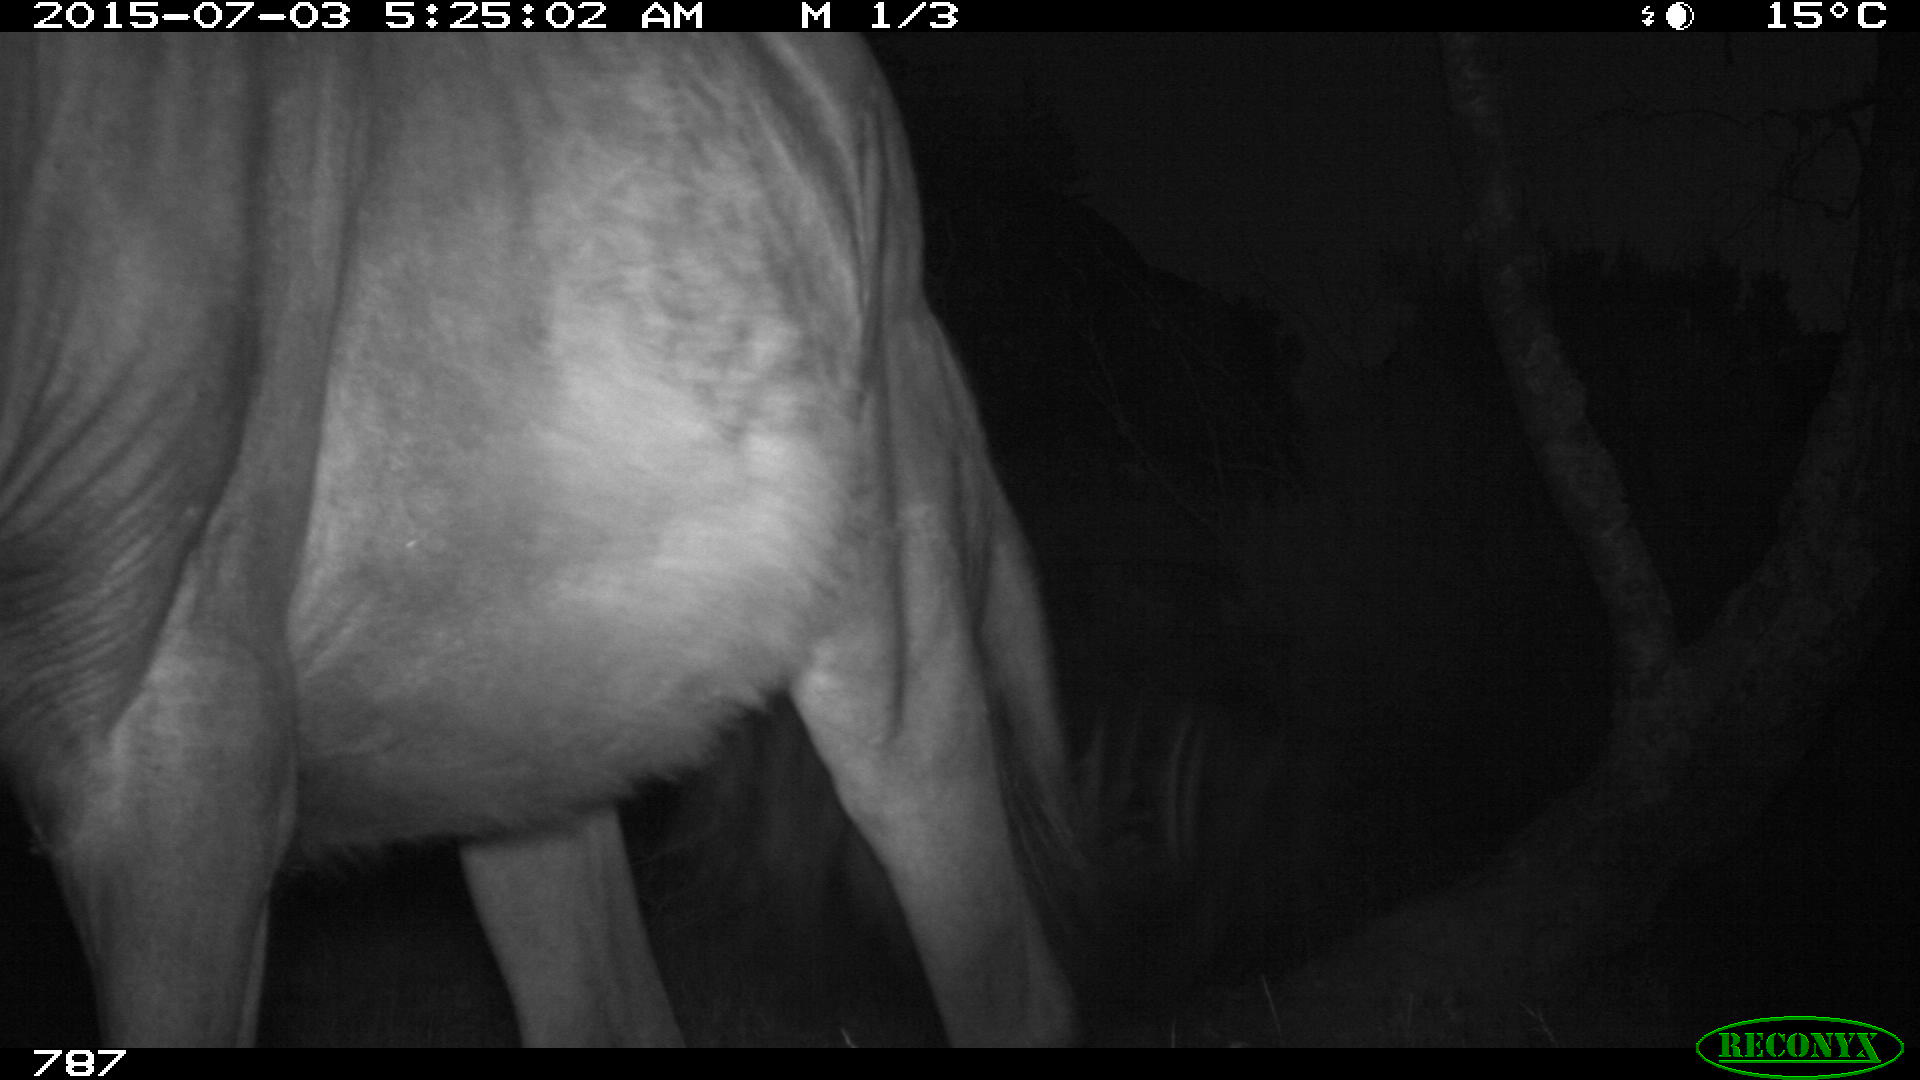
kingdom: Animalia
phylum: Chordata
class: Mammalia
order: Perissodactyla
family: Equidae
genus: Equus
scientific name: Equus caballus
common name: Horse
